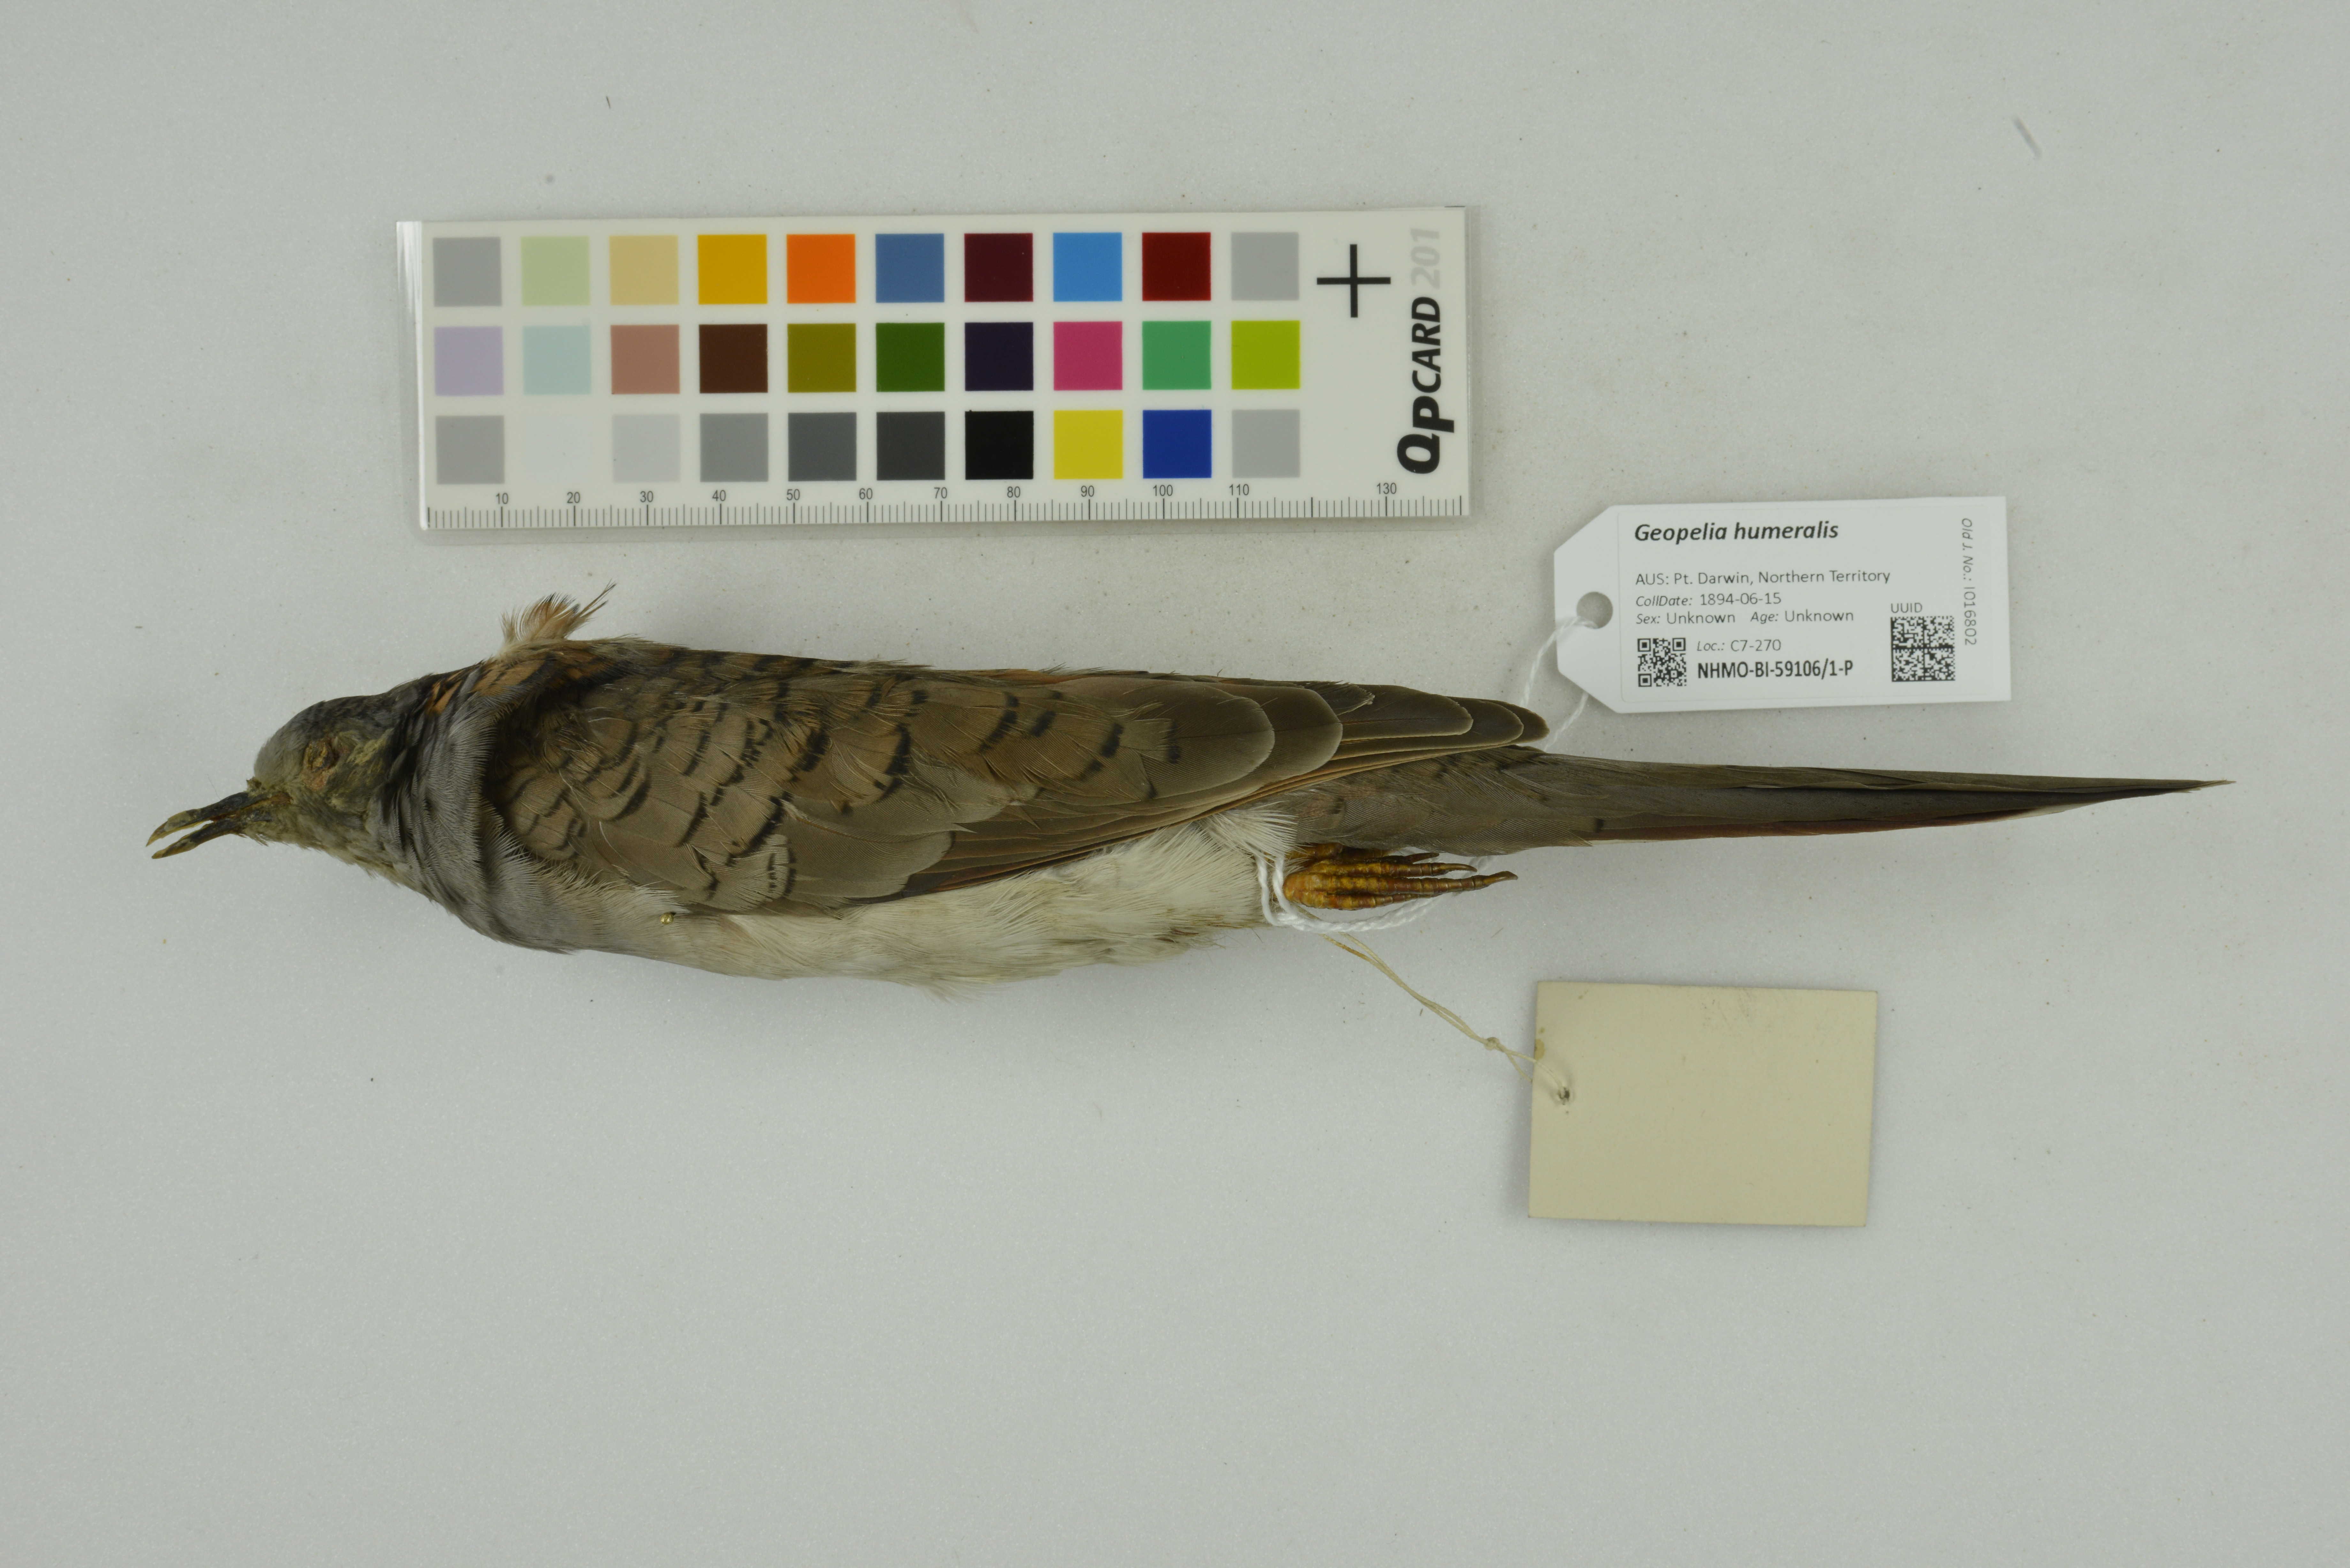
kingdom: Animalia
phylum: Chordata
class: Aves
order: Columbiformes
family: Columbidae
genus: Geopelia
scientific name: Geopelia humeralis
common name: Bar-shouldered dove
